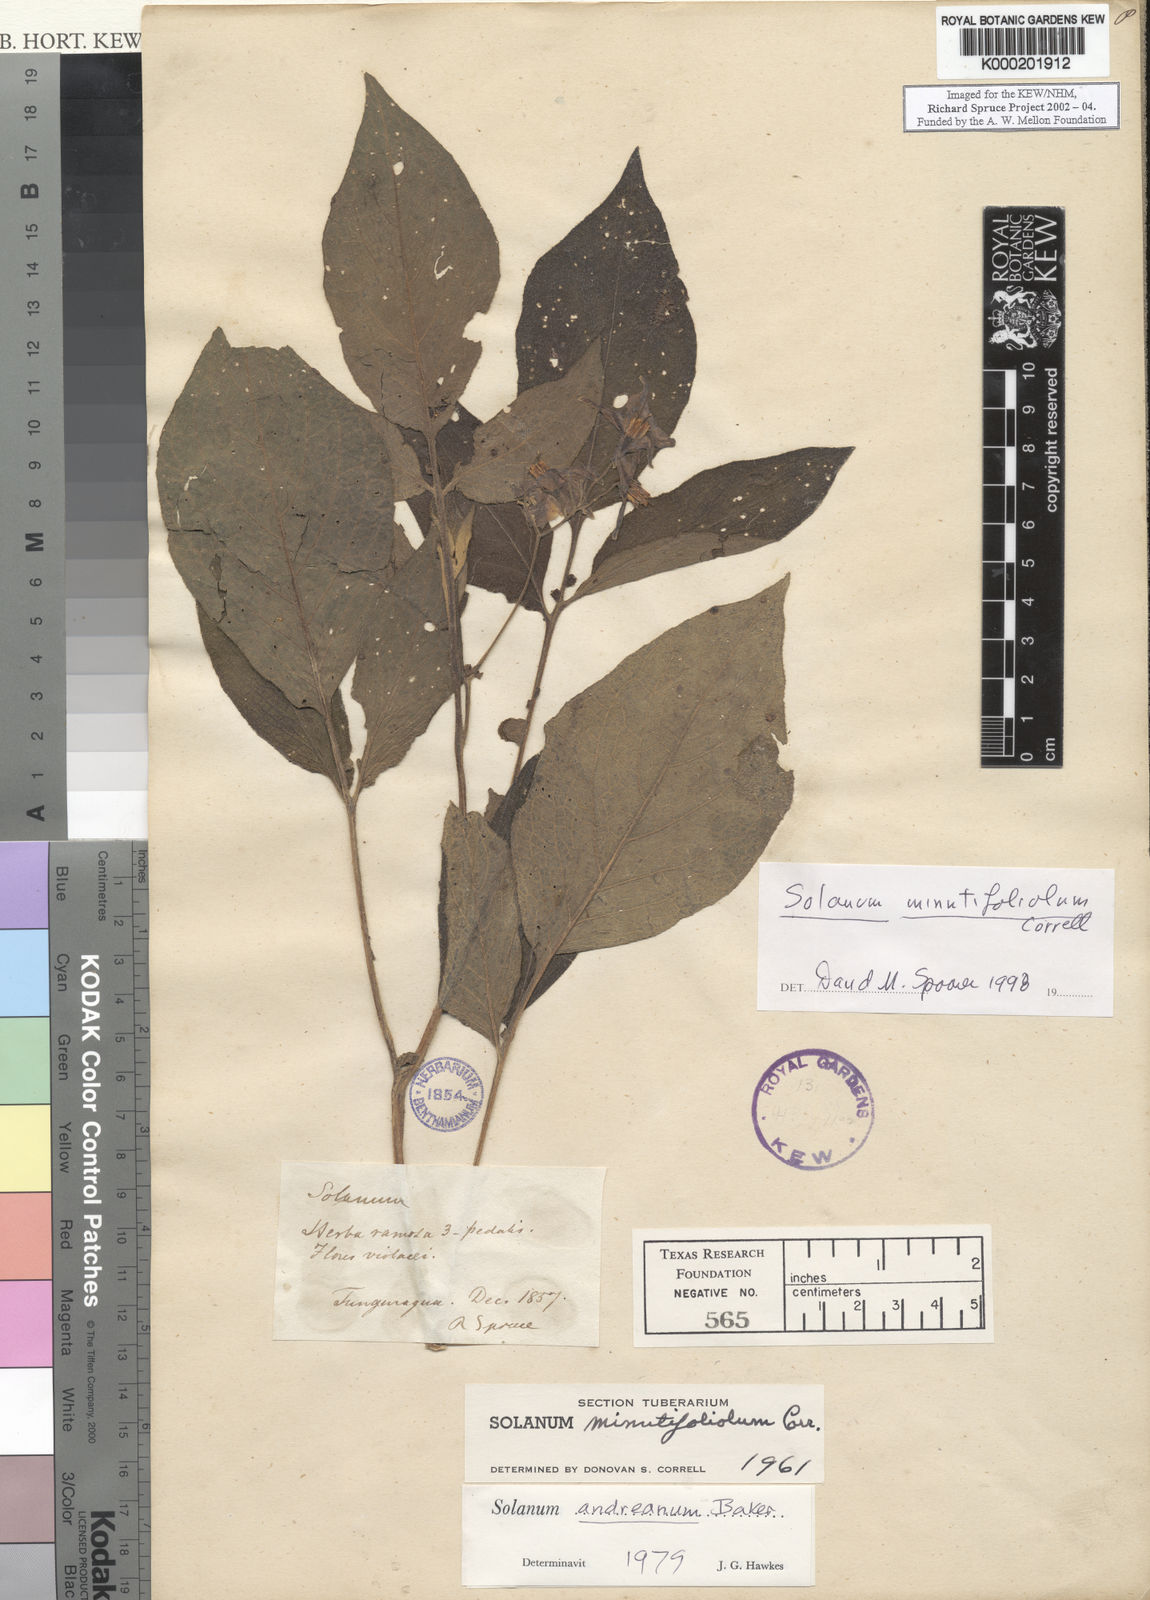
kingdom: Plantae
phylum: Tracheophyta
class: Magnoliopsida
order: Solanales
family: Solanaceae
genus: Solanum
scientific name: Solanum minutifoliolum
